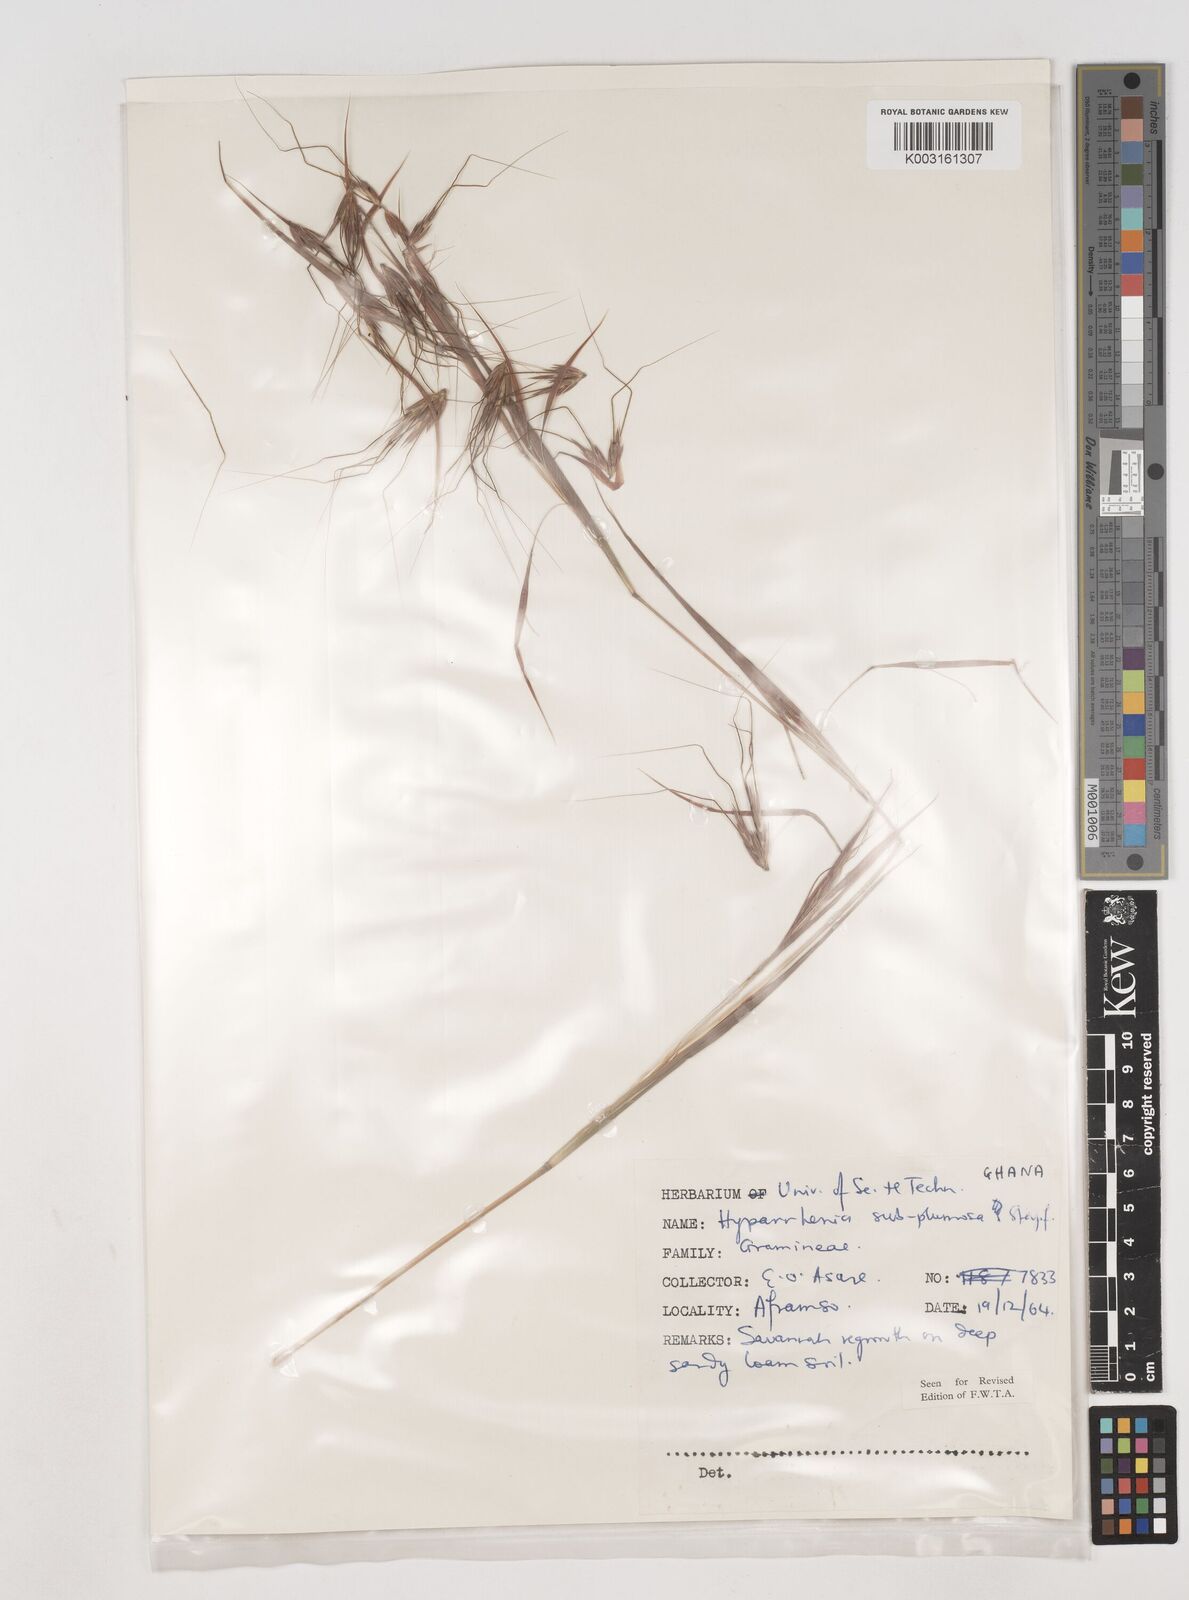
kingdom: Plantae
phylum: Tracheophyta
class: Liliopsida
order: Poales
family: Poaceae
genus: Hyparrhenia
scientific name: Hyparrhenia subplumosa
